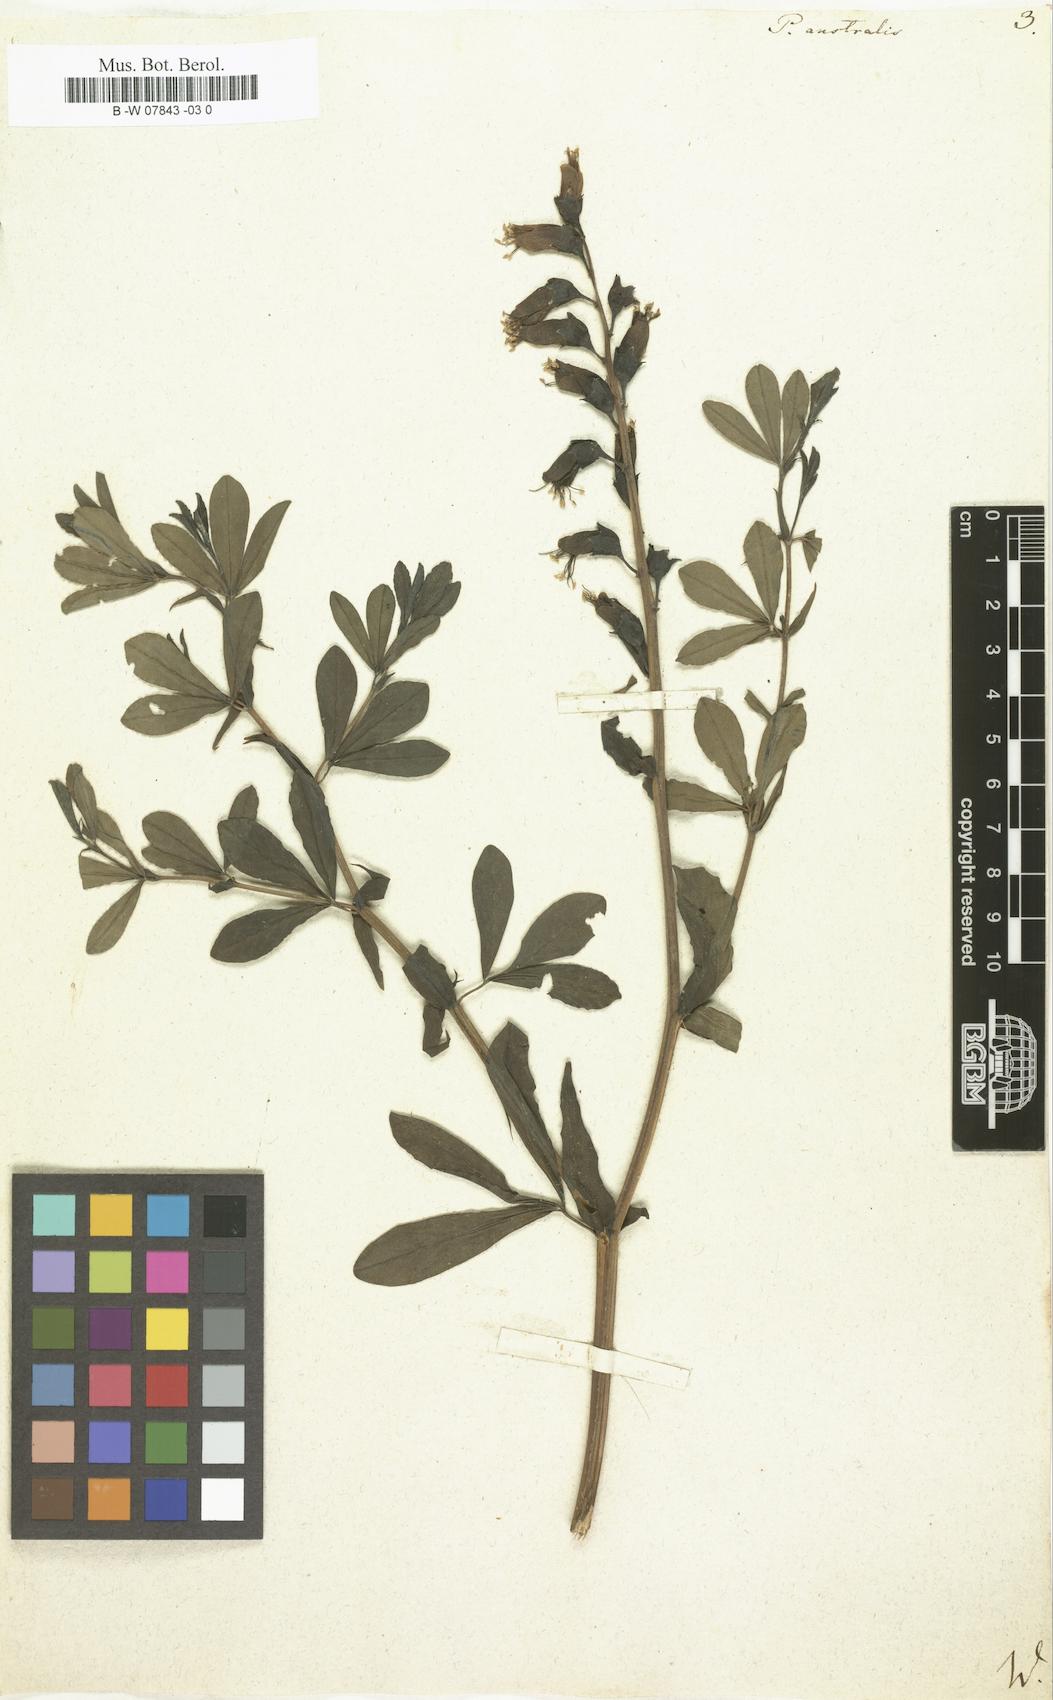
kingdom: Plantae
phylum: Tracheophyta
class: Magnoliopsida
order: Fabales
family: Fabaceae
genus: Baptisia
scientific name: Baptisia australis
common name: Blue false indigo
